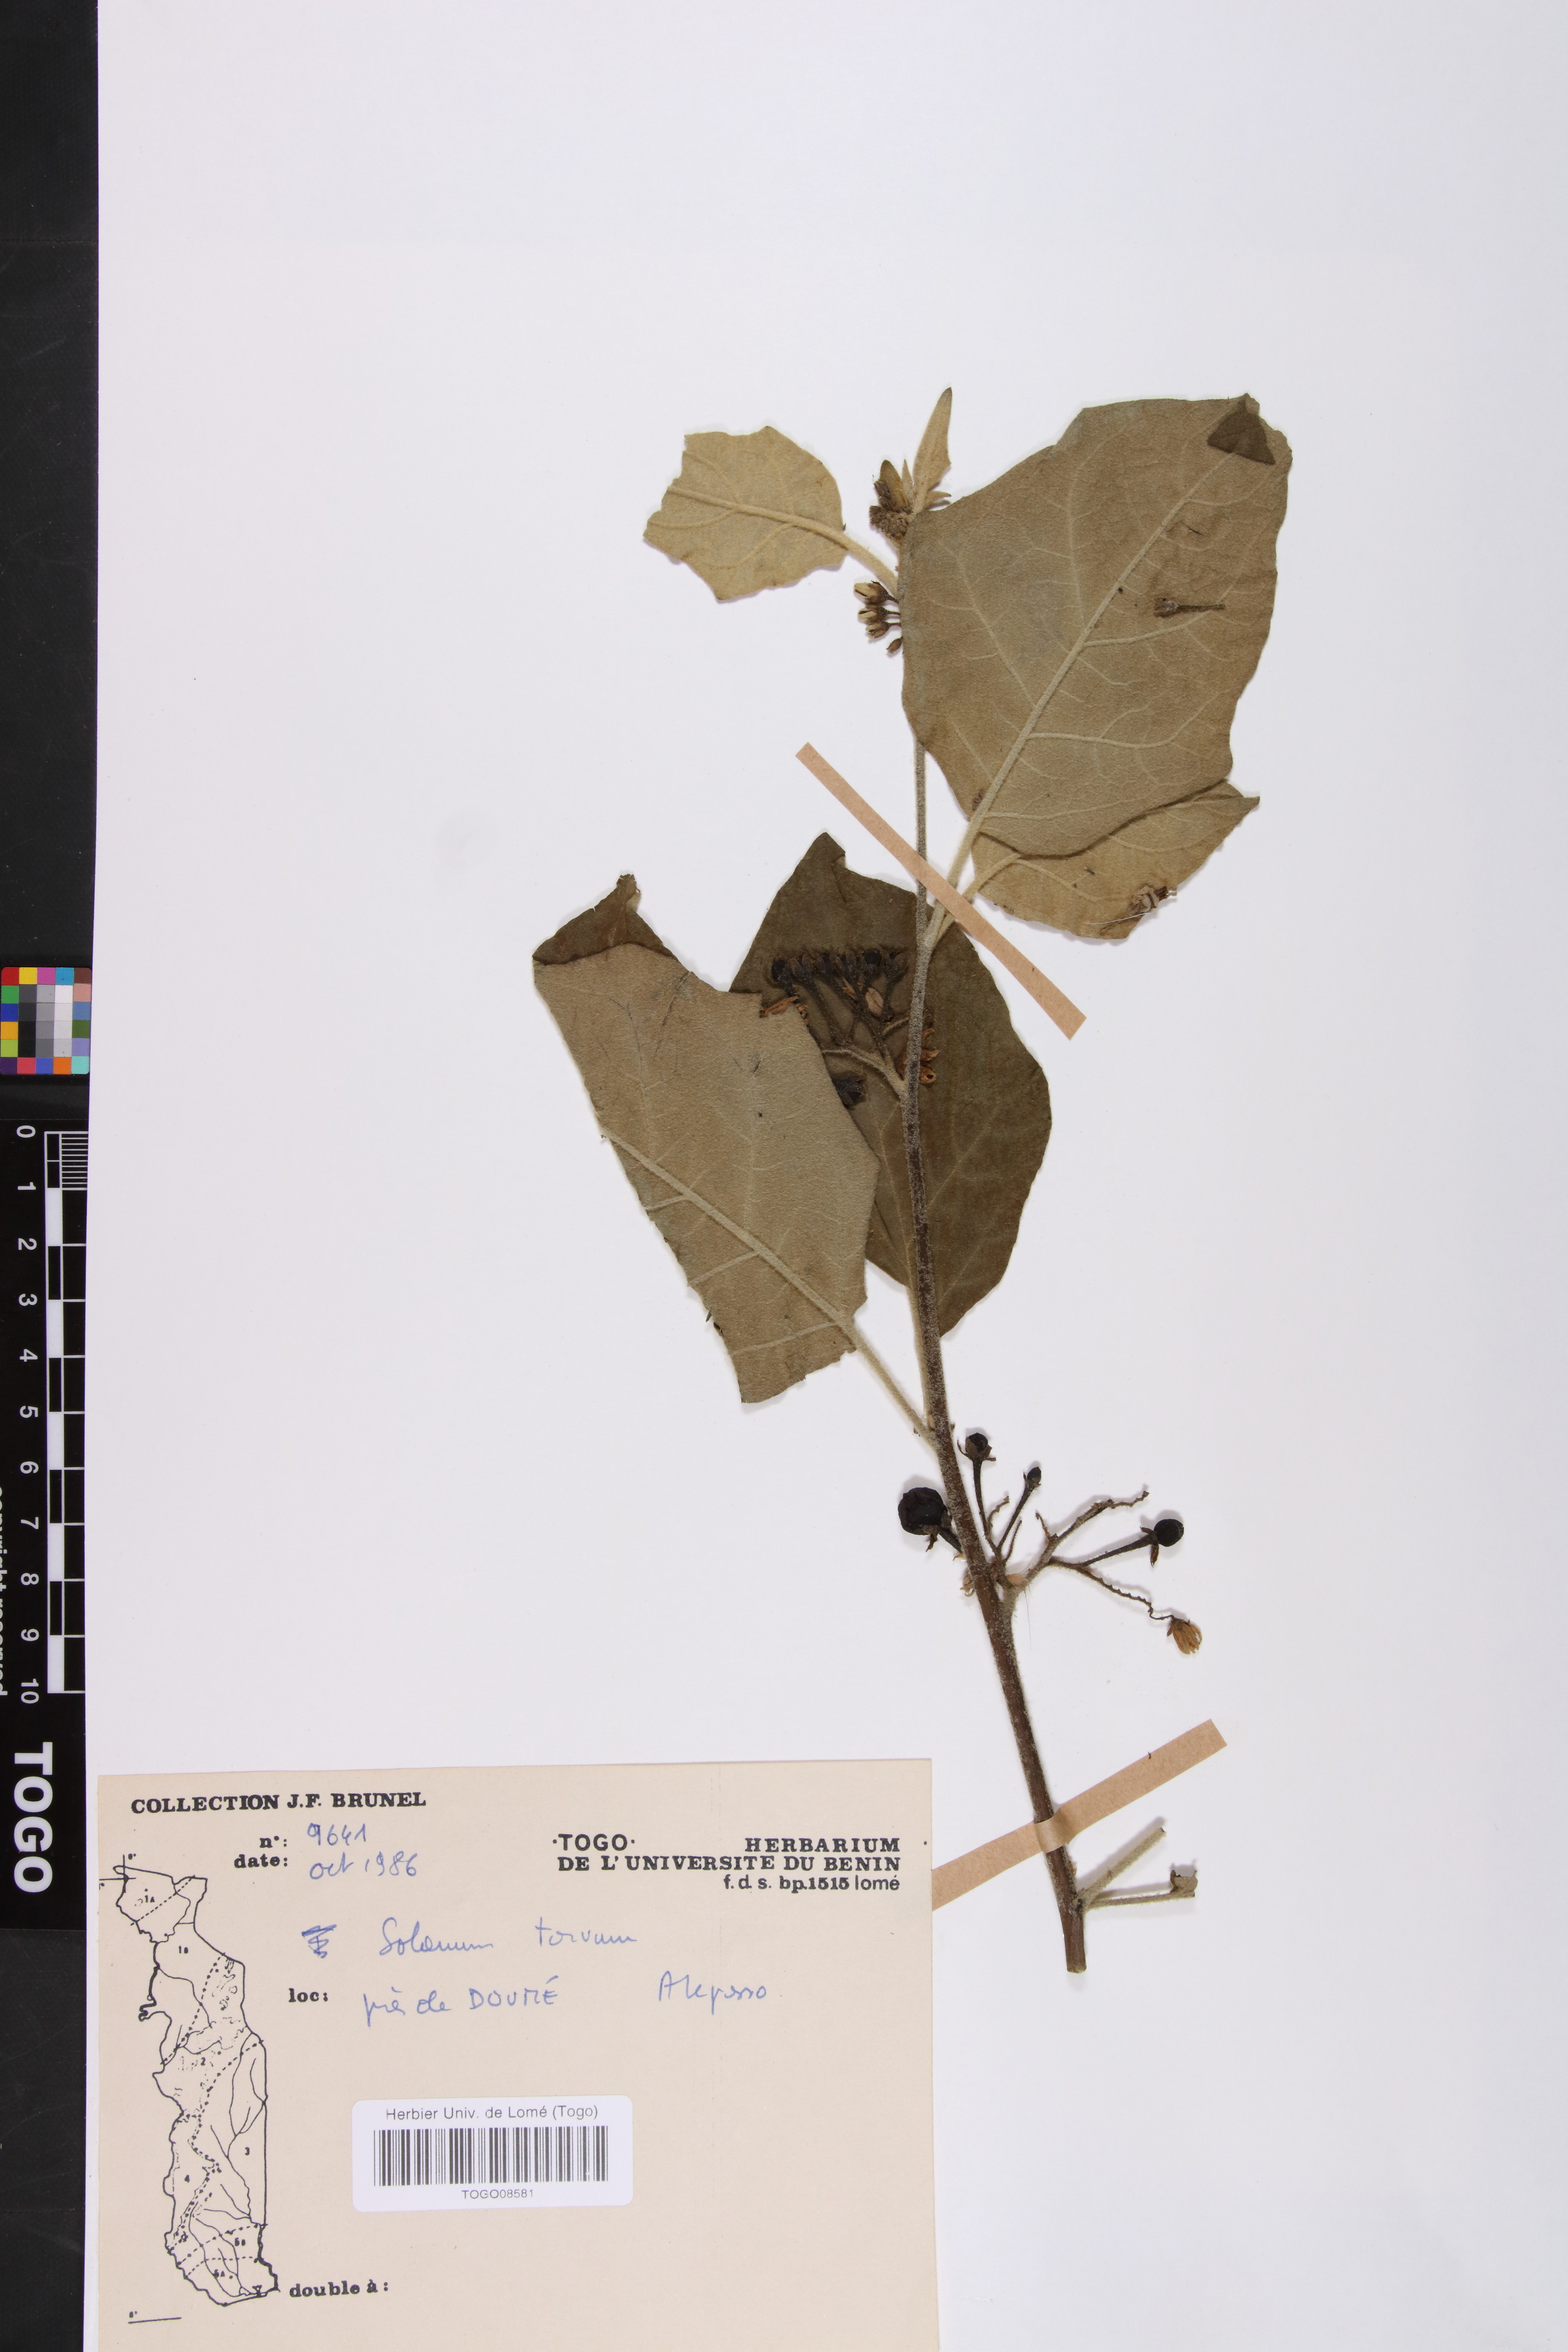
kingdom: Plantae
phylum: Tracheophyta
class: Magnoliopsida
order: Solanales
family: Solanaceae
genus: Solanum
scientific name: Solanum torvum
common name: Turkey berry
